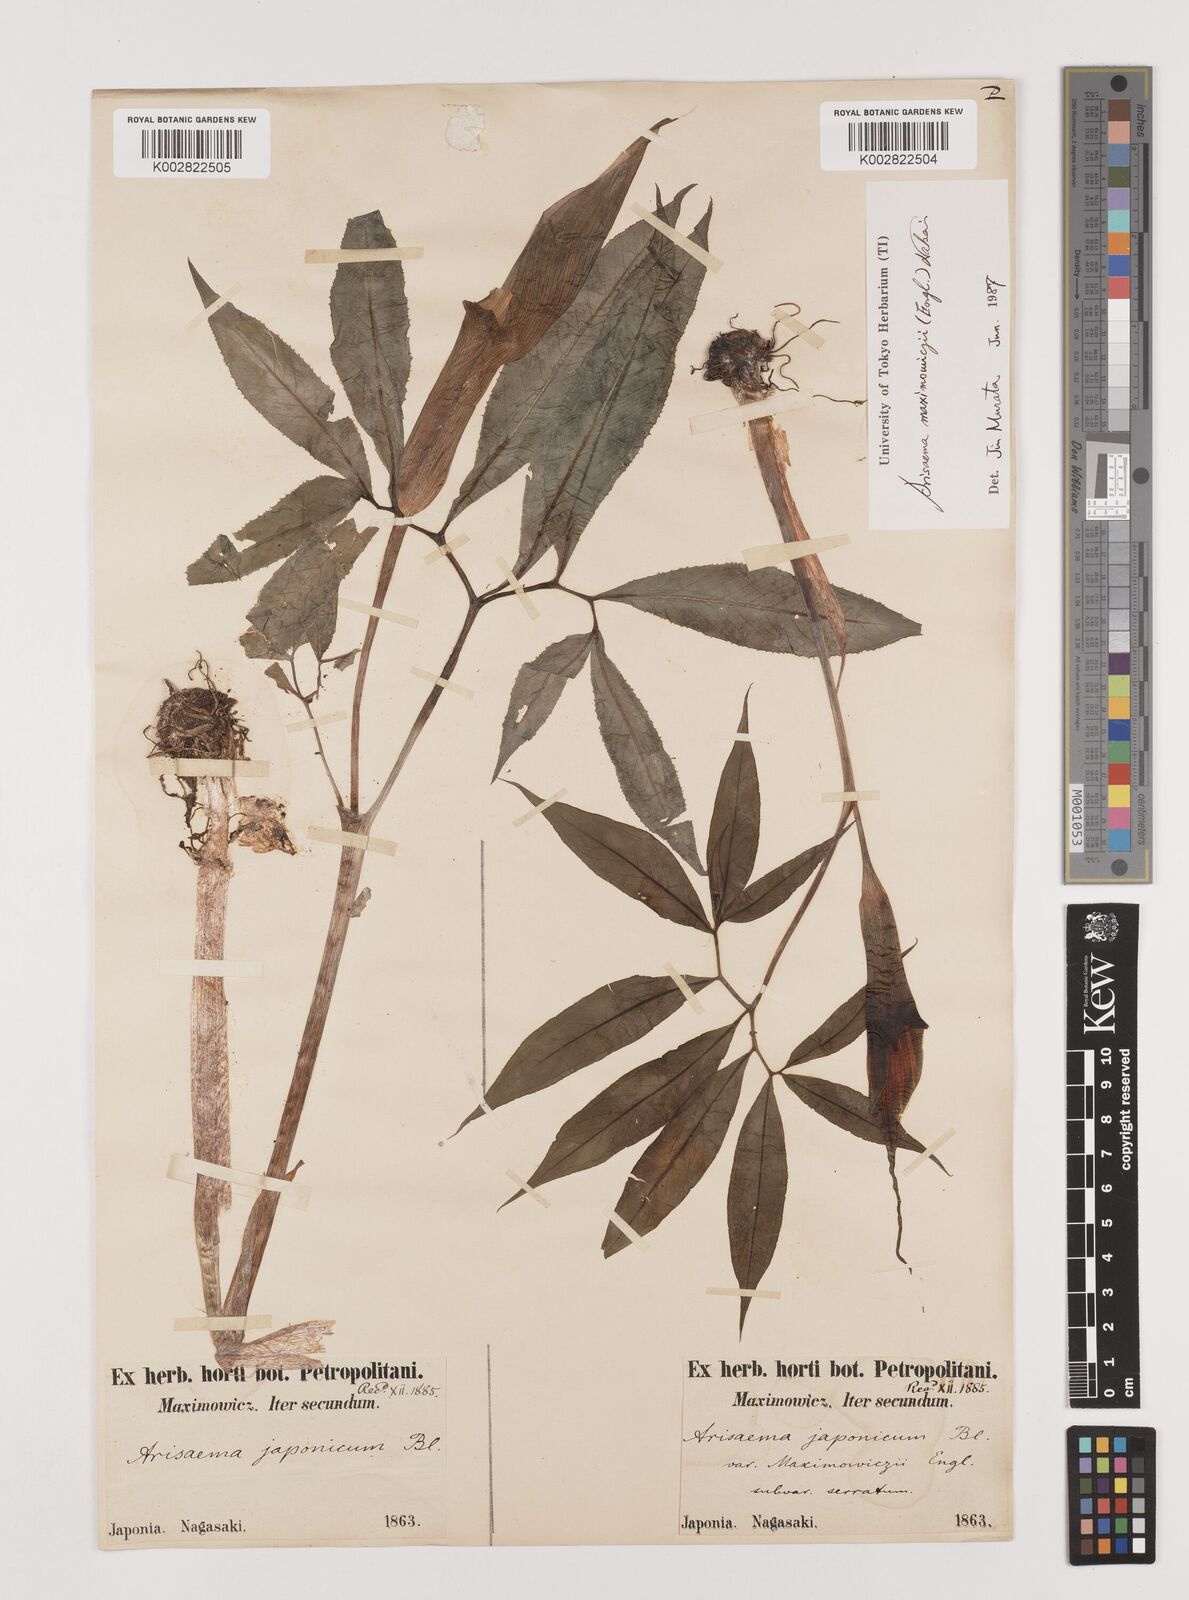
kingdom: Plantae
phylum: Tracheophyta
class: Liliopsida
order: Alismatales
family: Araceae
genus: Arisaema
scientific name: Arisaema maximowiczii
